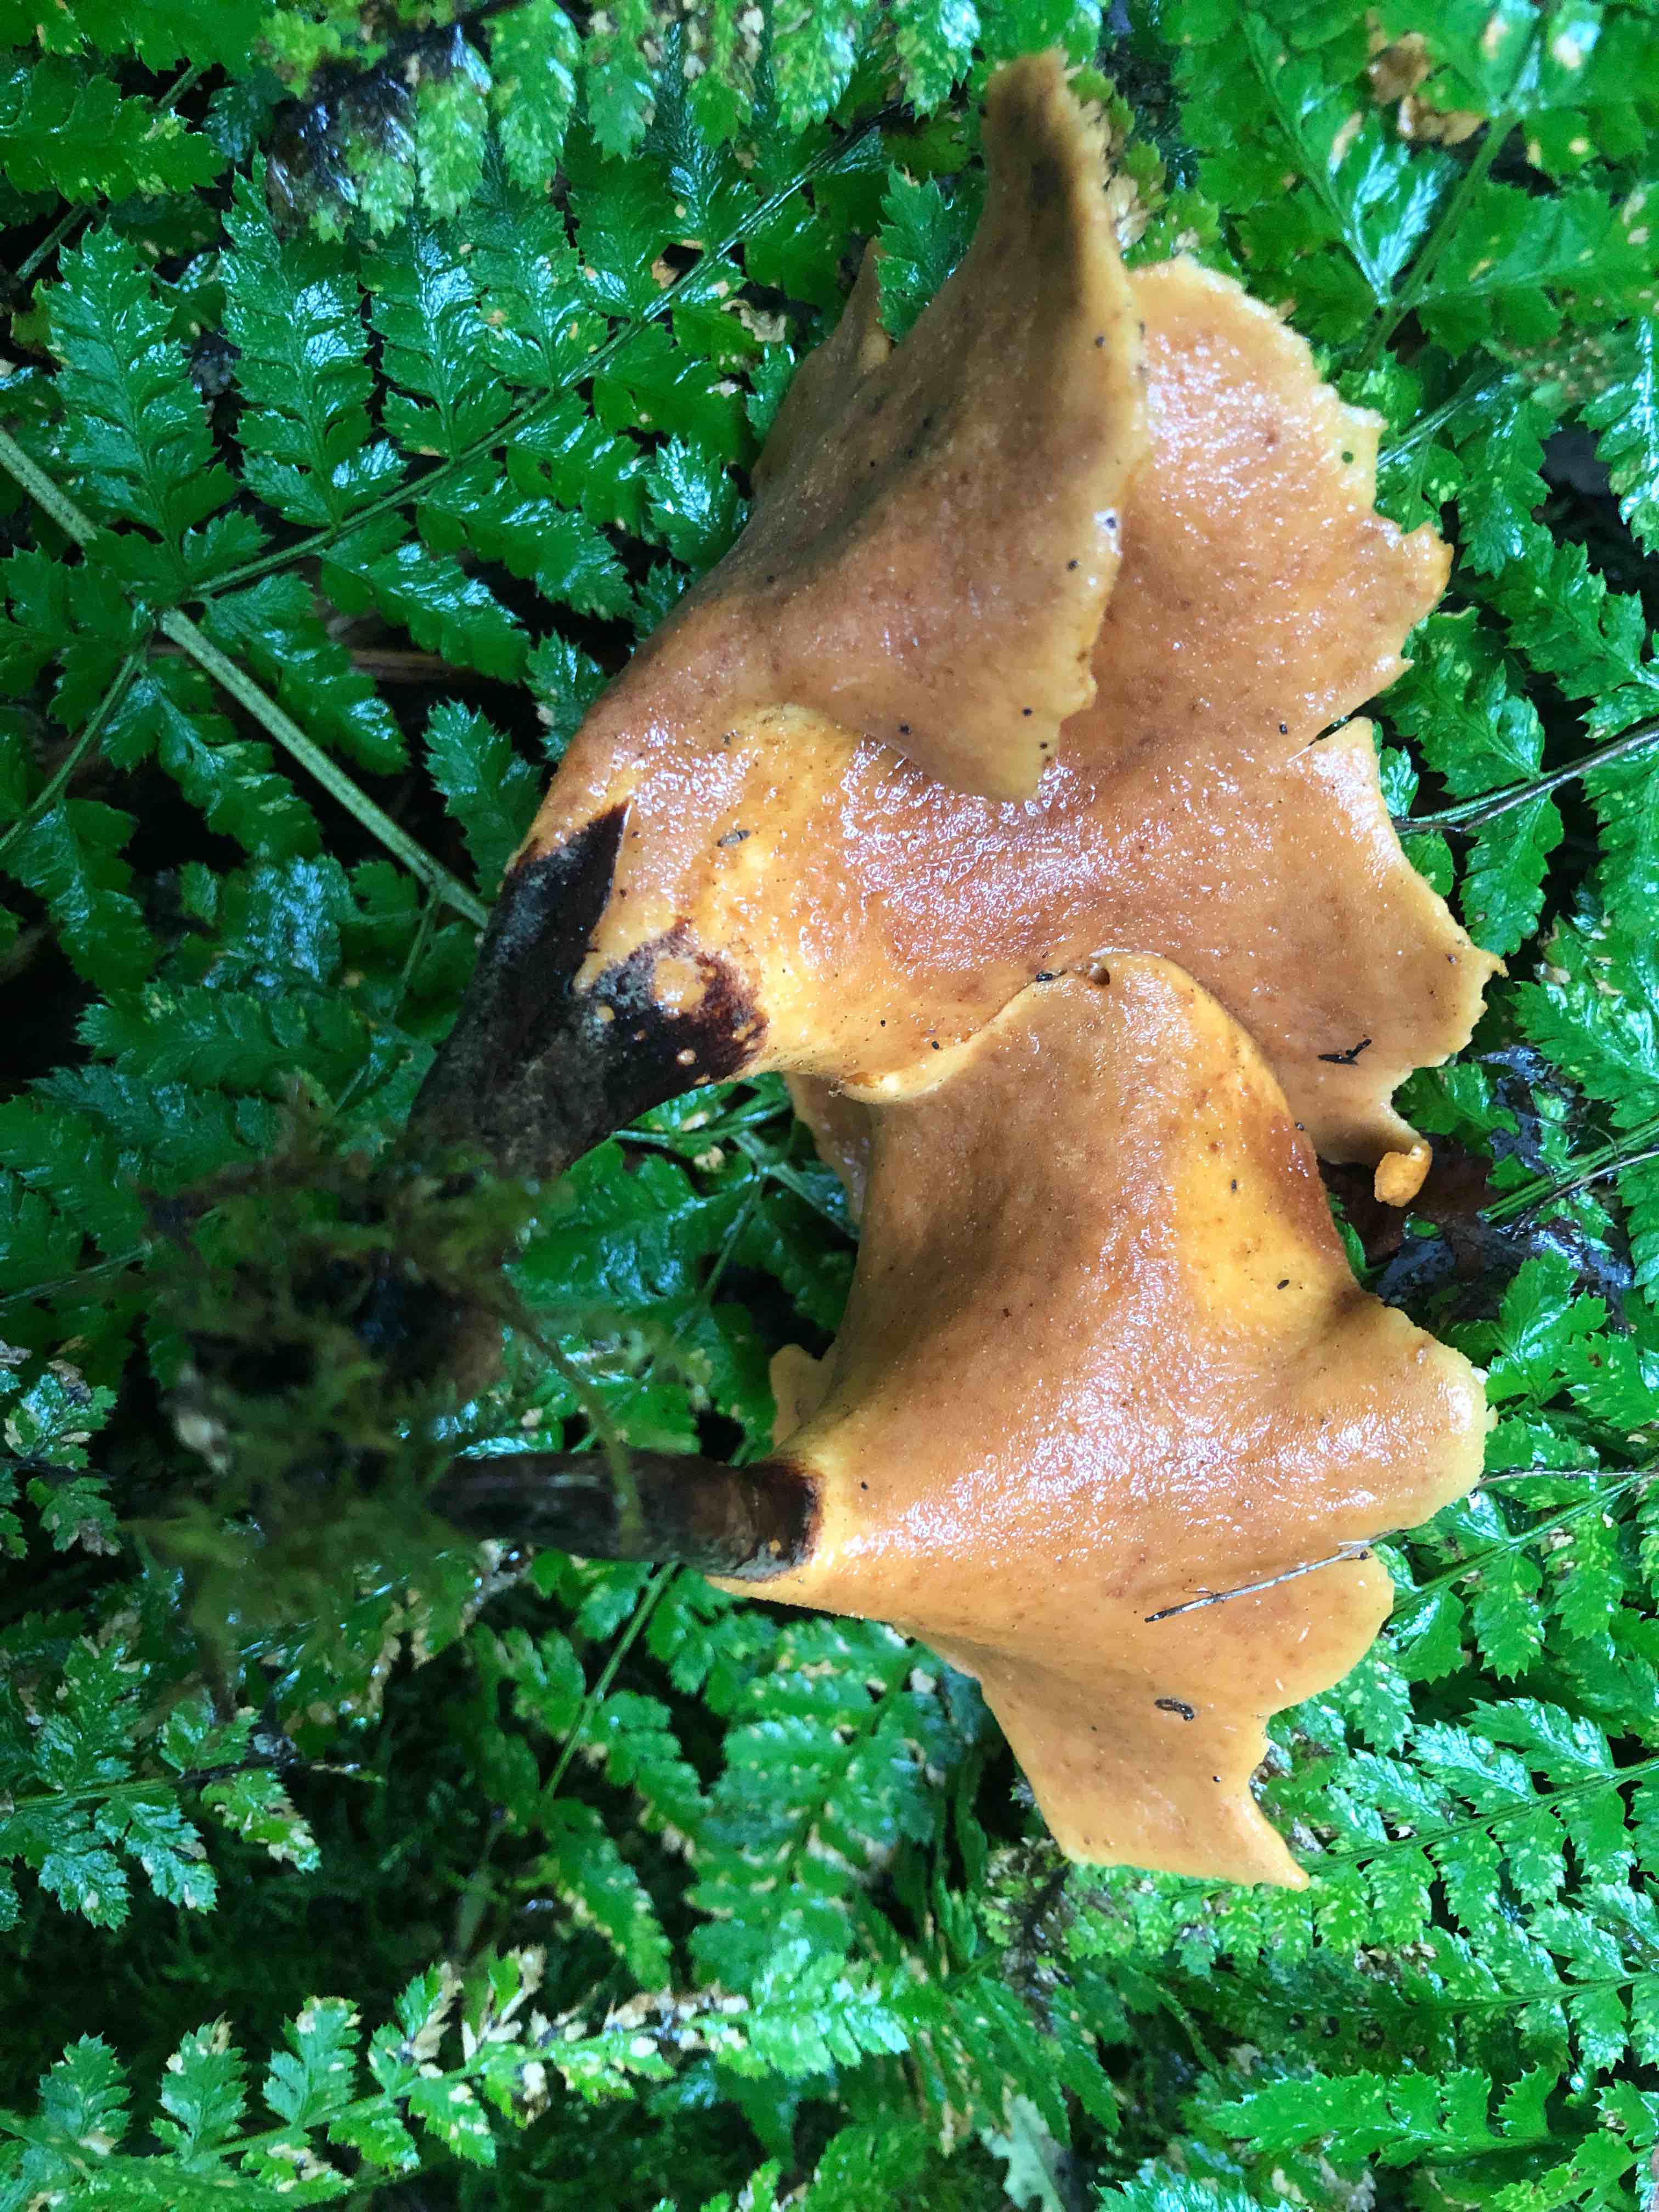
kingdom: Fungi
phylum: Basidiomycota
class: Agaricomycetes
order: Polyporales
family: Polyporaceae
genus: Picipes
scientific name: Picipes badius
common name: kastaniebrun stilkporesvamp
